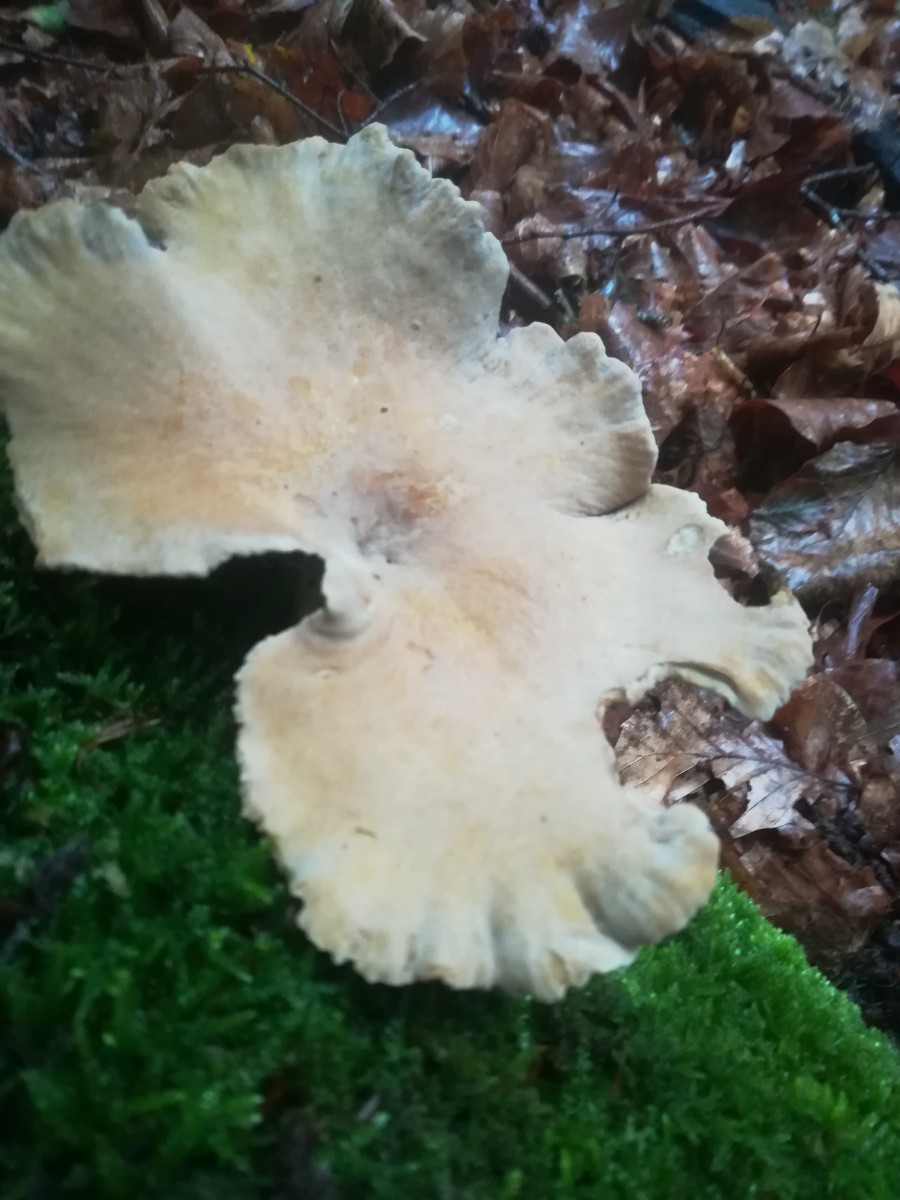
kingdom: Fungi
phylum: Basidiomycota
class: Agaricomycetes
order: Polyporales
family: Polyporaceae
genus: Cerioporus
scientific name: Cerioporus varius
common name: foranderlig stilkporesvamp
